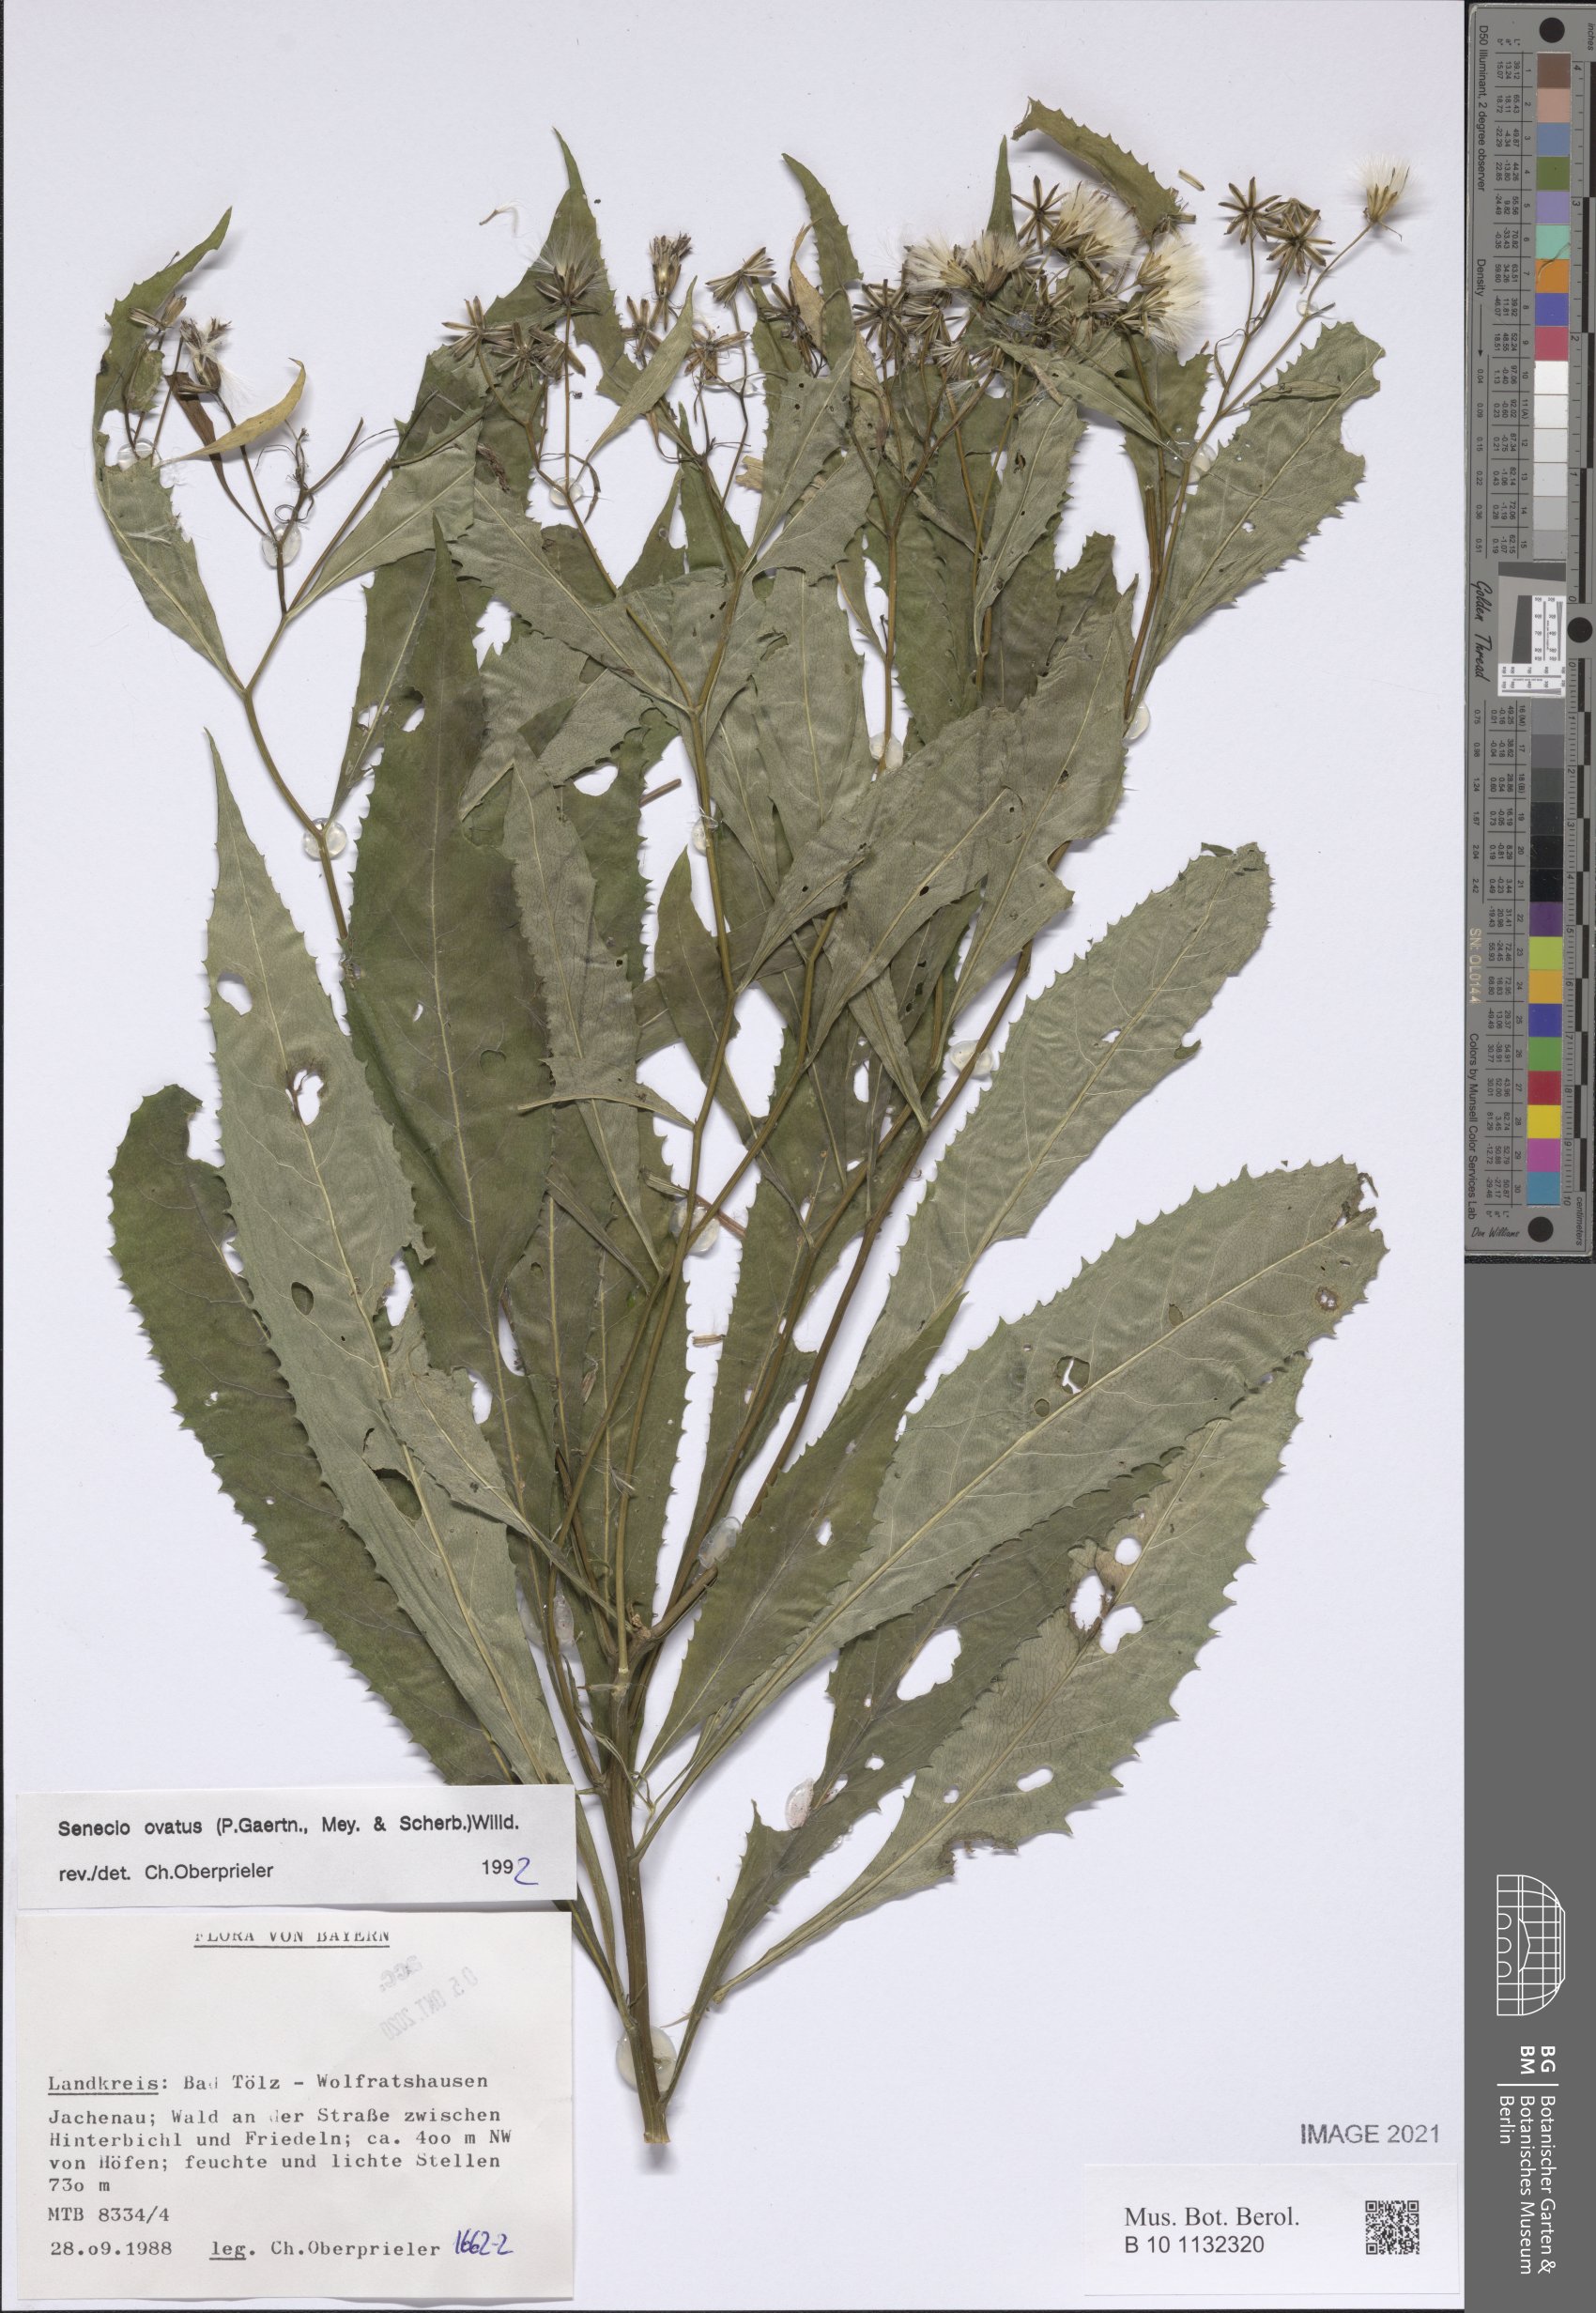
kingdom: Plantae
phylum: Tracheophyta
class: Magnoliopsida
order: Asterales
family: Asteraceae
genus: Senecio
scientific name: Senecio ovatus
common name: Wood ragwort
